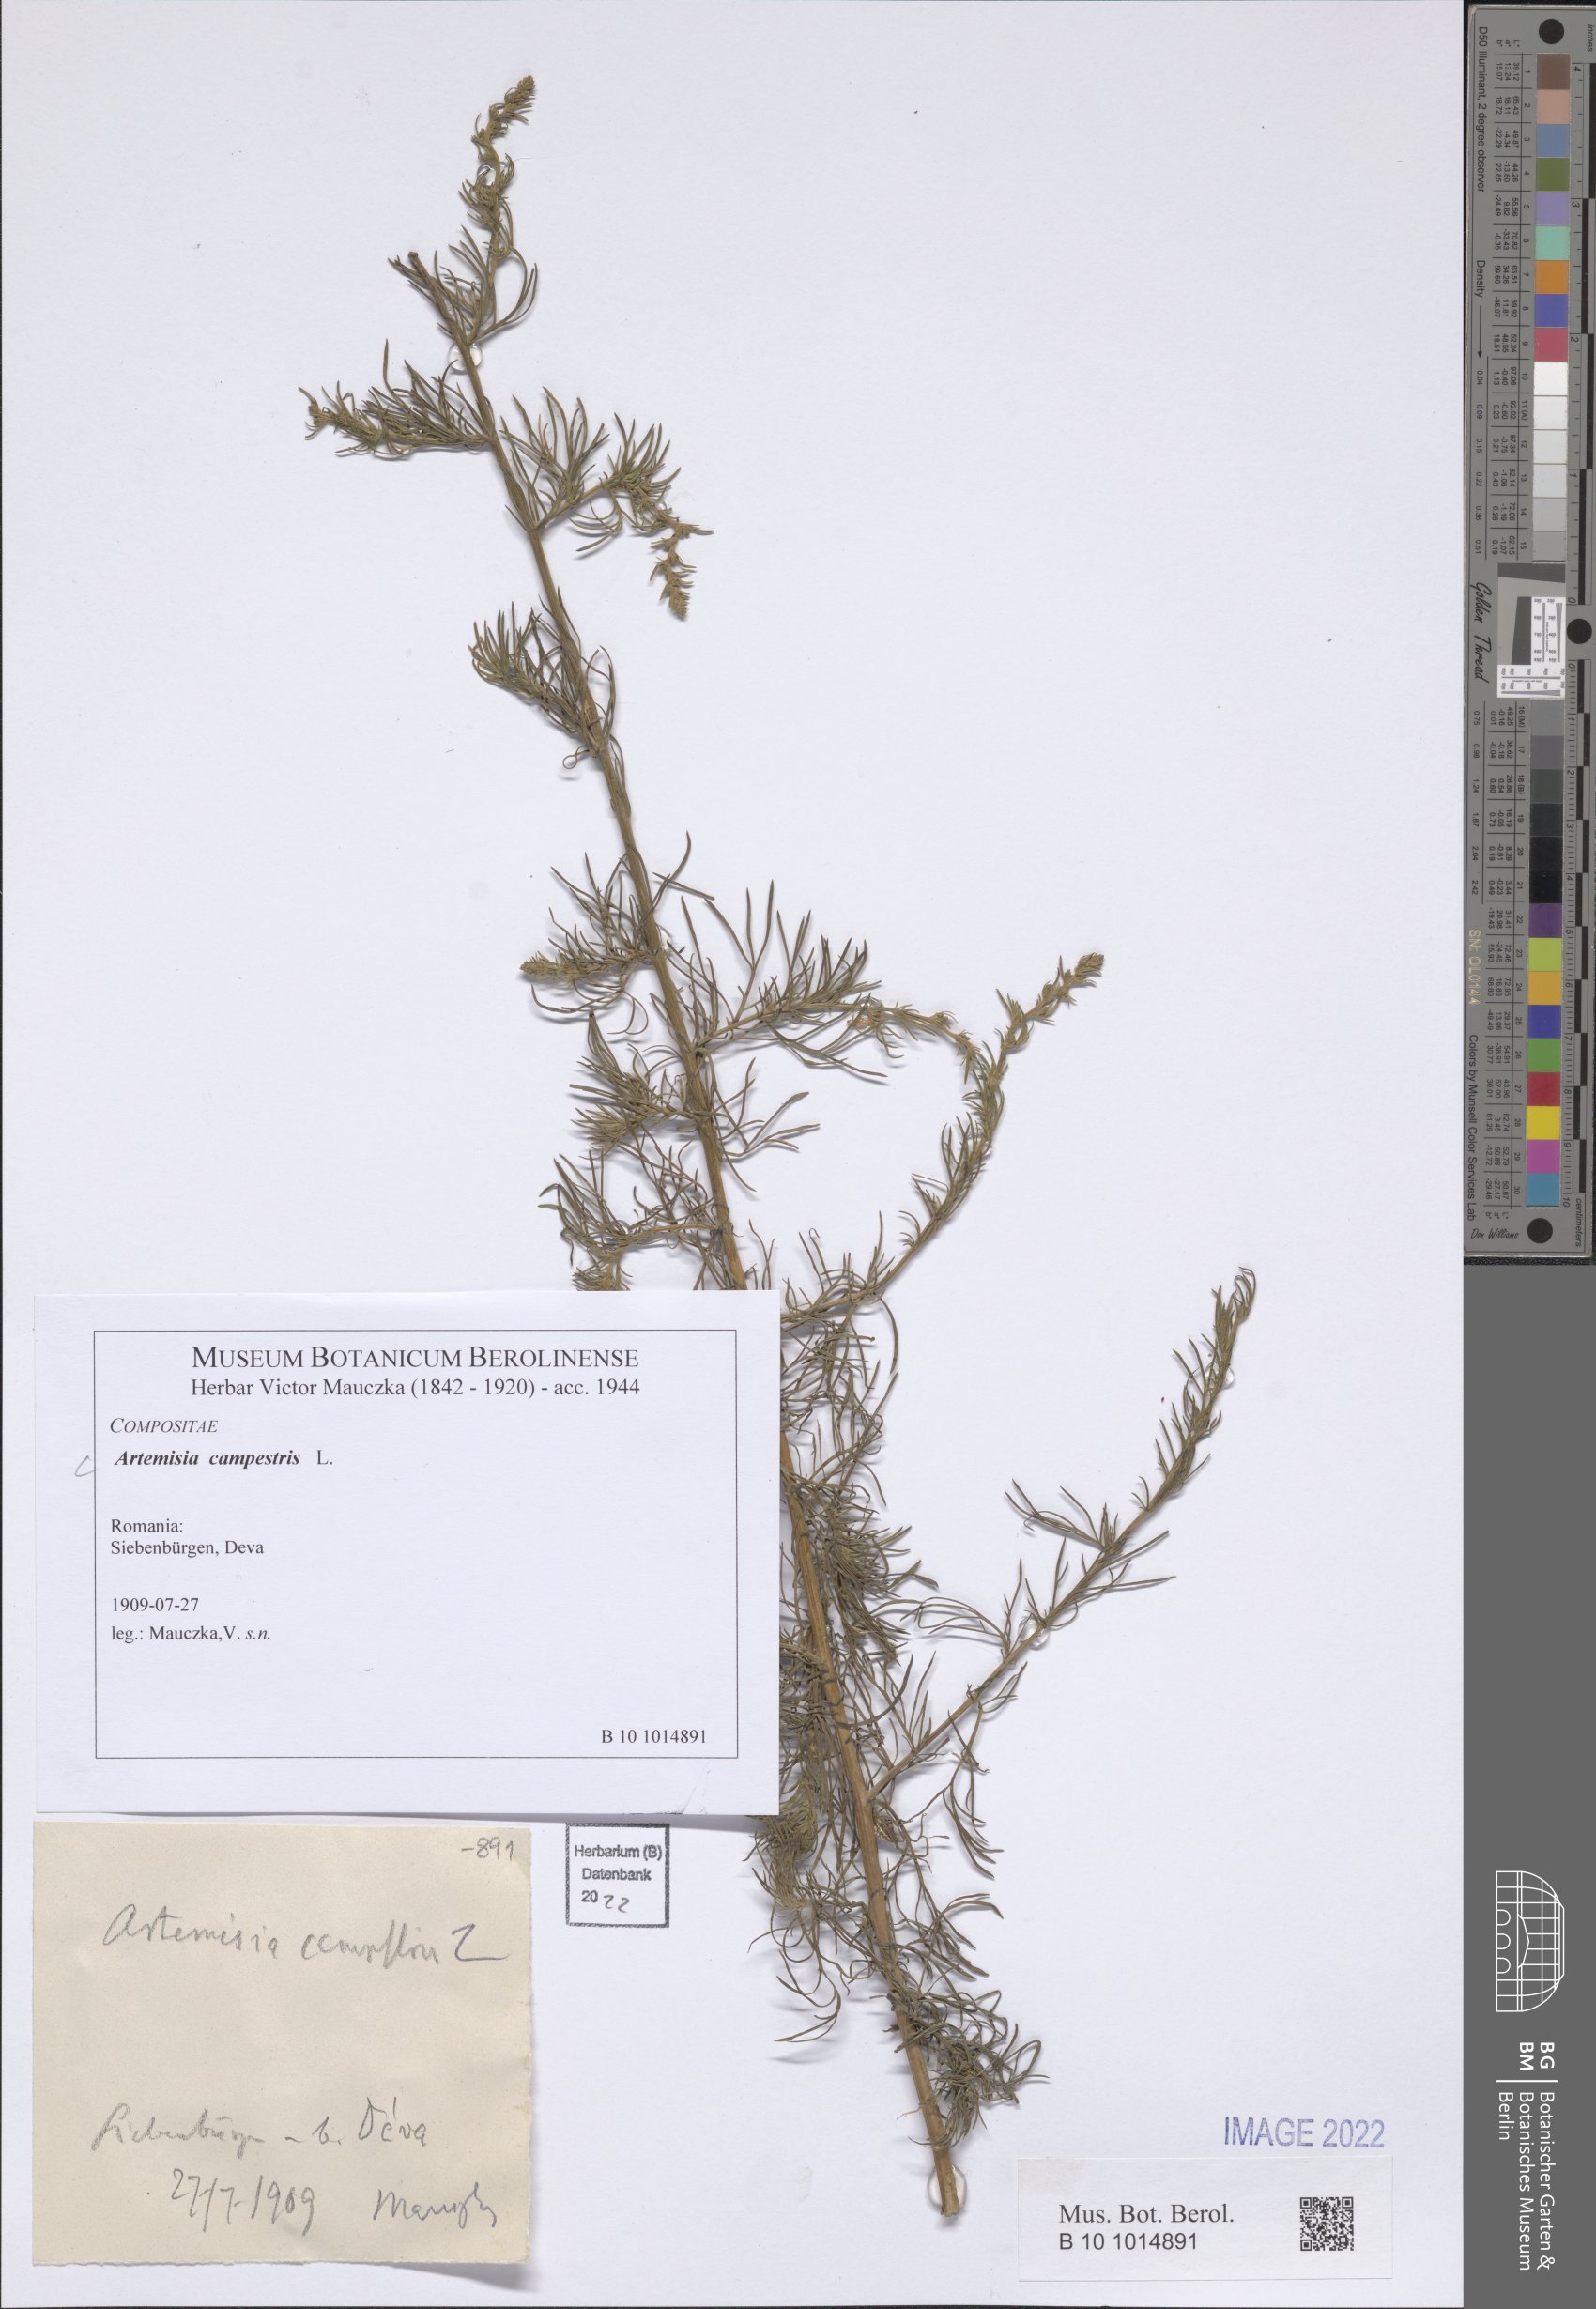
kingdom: Plantae
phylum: Tracheophyta
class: Magnoliopsida
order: Asterales
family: Asteraceae
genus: Artemisia
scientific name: Artemisia campestris
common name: Field wormwood
